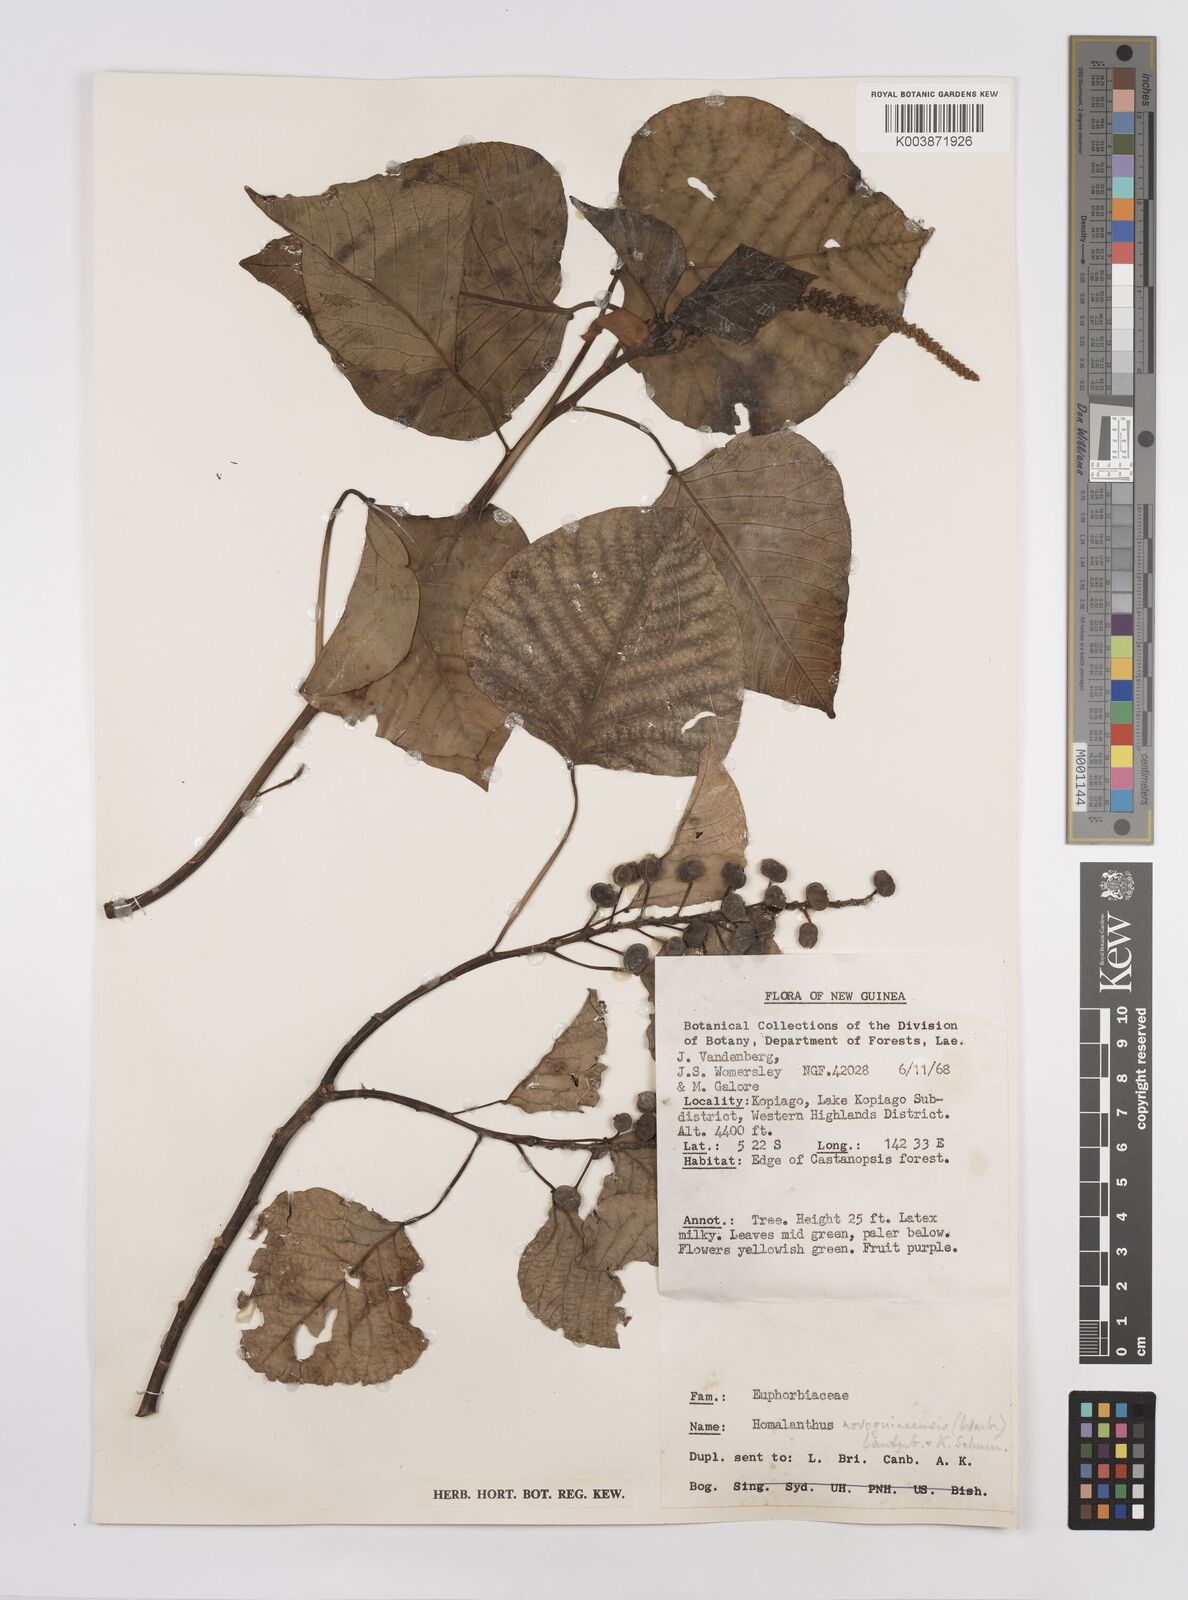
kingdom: Plantae
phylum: Tracheophyta
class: Magnoliopsida
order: Malpighiales
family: Euphorbiaceae
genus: Homalanthus
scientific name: Homalanthus novoguineensis
